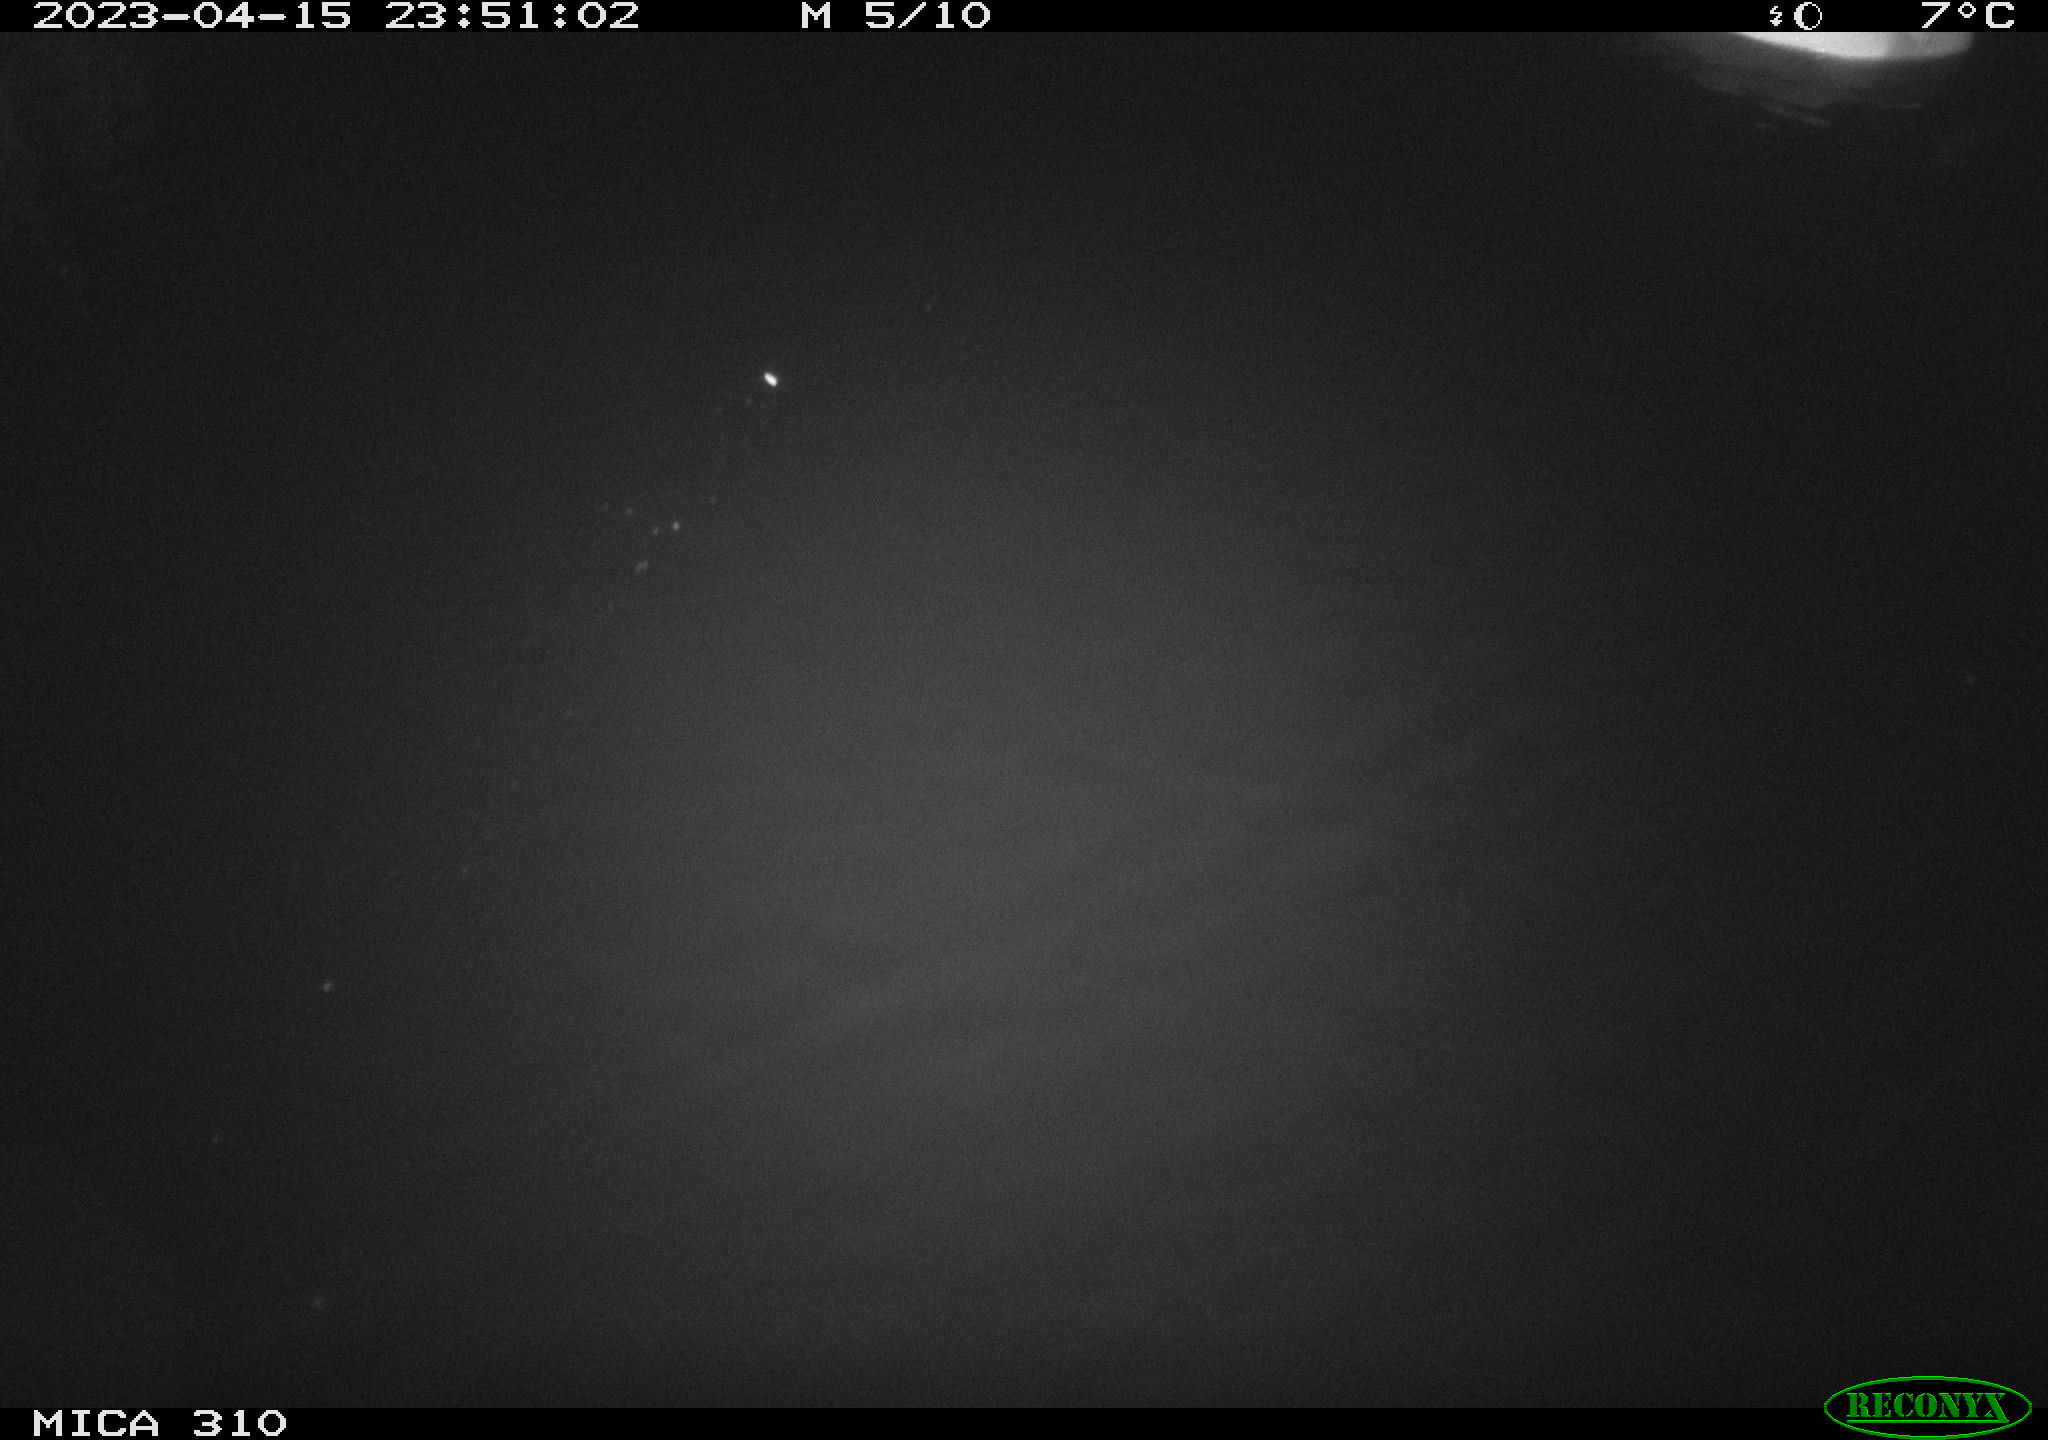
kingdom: Animalia
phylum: Chordata
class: Aves
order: Anseriformes
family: Anatidae
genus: Anas
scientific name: Anas
